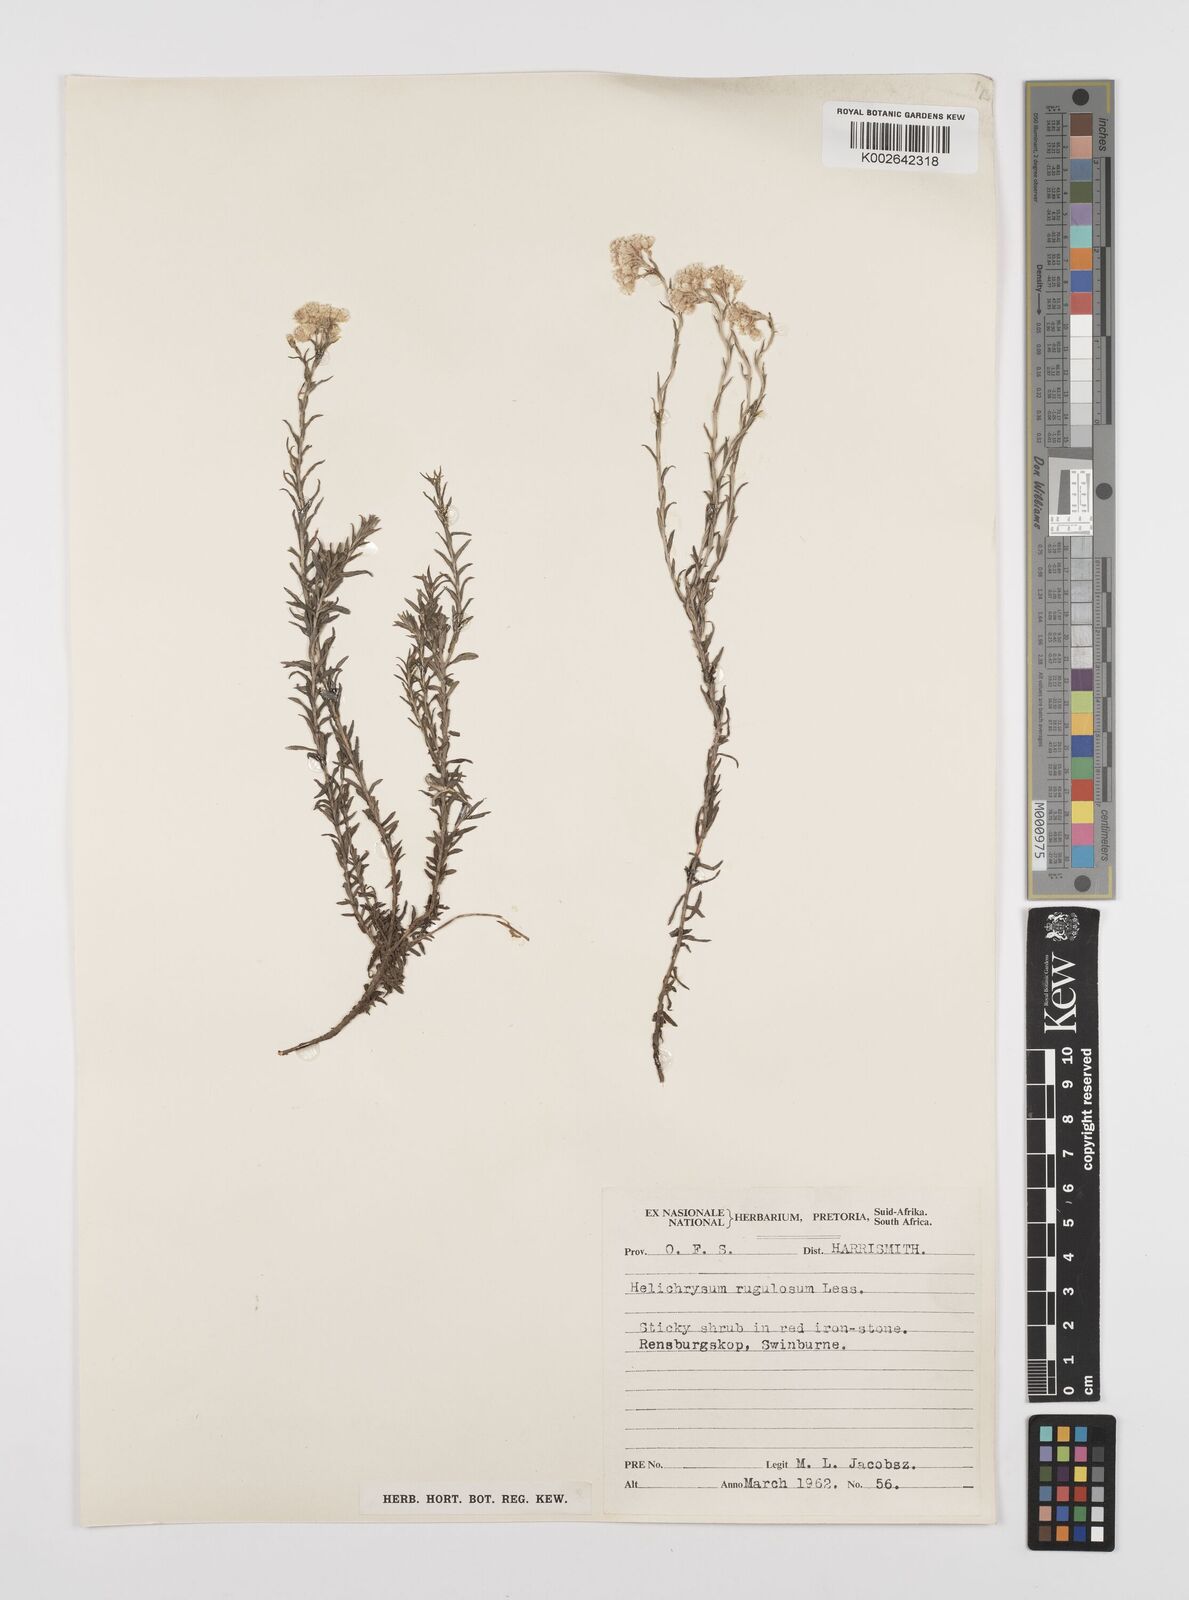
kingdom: Plantae
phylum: Tracheophyta
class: Magnoliopsida
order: Asterales
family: Asteraceae
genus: Helichrysum
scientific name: Helichrysum rugulosum
